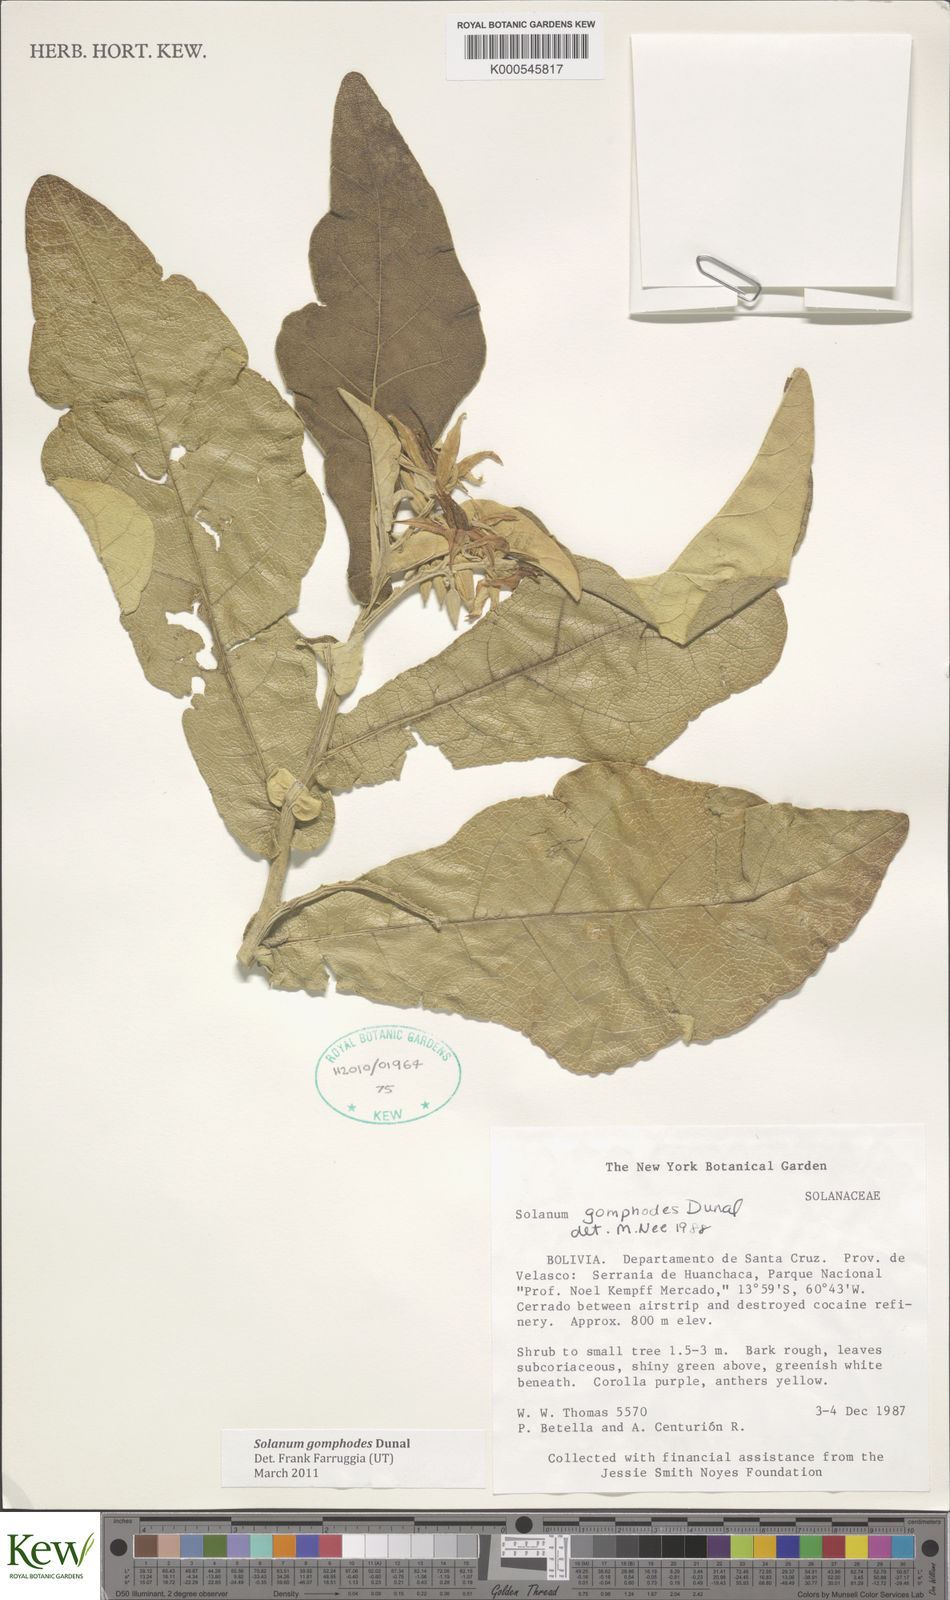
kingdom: Plantae
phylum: Tracheophyta
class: Magnoliopsida
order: Solanales
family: Solanaceae
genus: Solanum
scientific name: Solanum gomphodes
